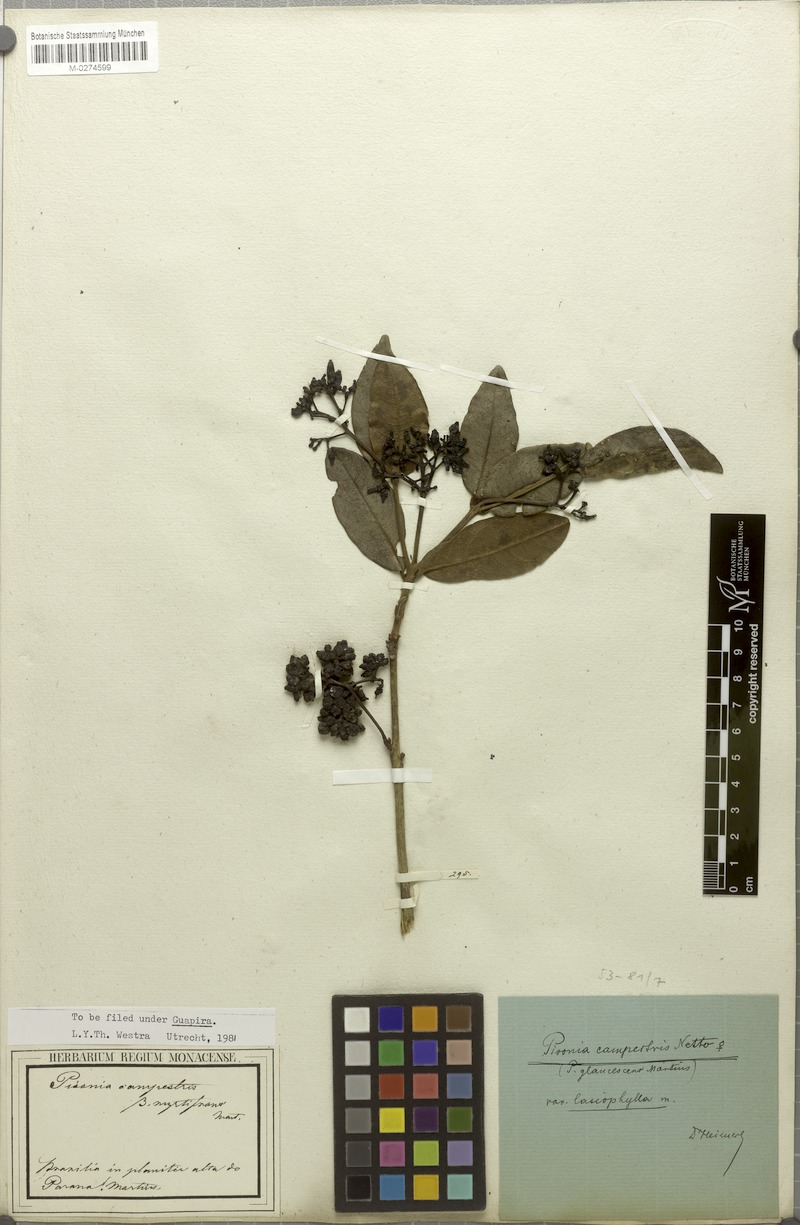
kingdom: Plantae
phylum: Tracheophyta
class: Magnoliopsida
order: Caryophyllales
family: Nyctaginaceae
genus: Guapira
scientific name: Guapira campestris
